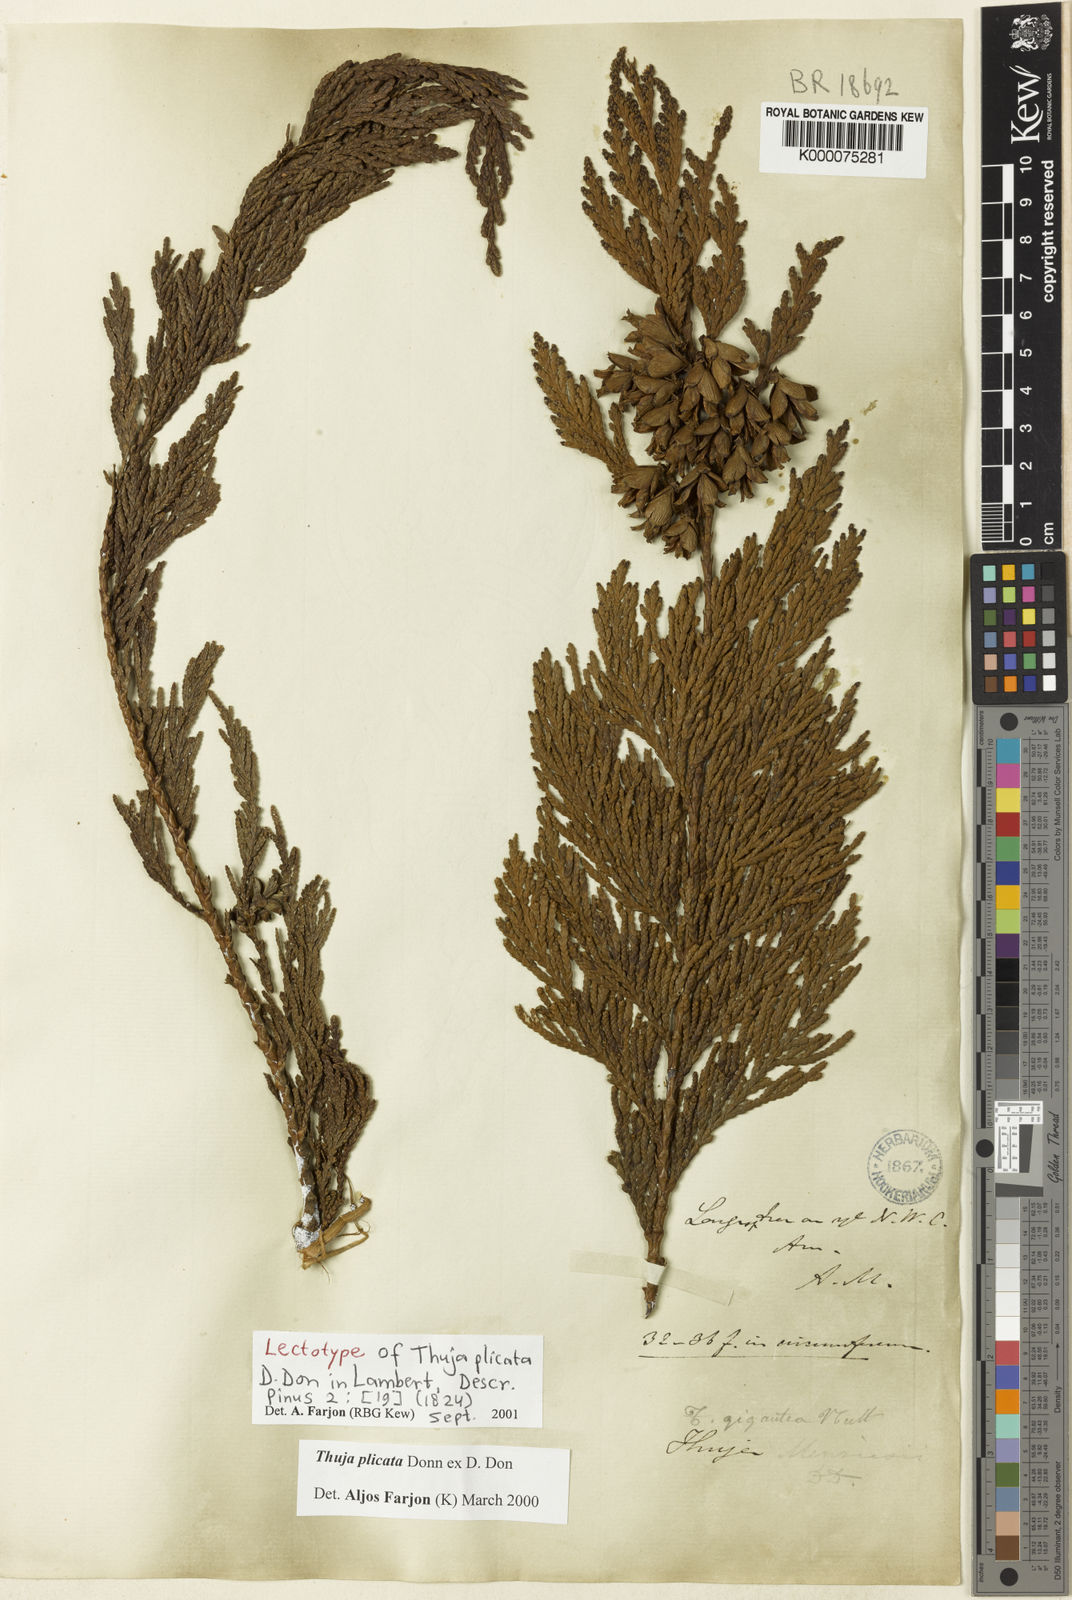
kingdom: Plantae
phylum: Tracheophyta
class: Pinopsida
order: Pinales
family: Cupressaceae
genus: Thuja
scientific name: Thuja plicata
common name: Western red-cedar
